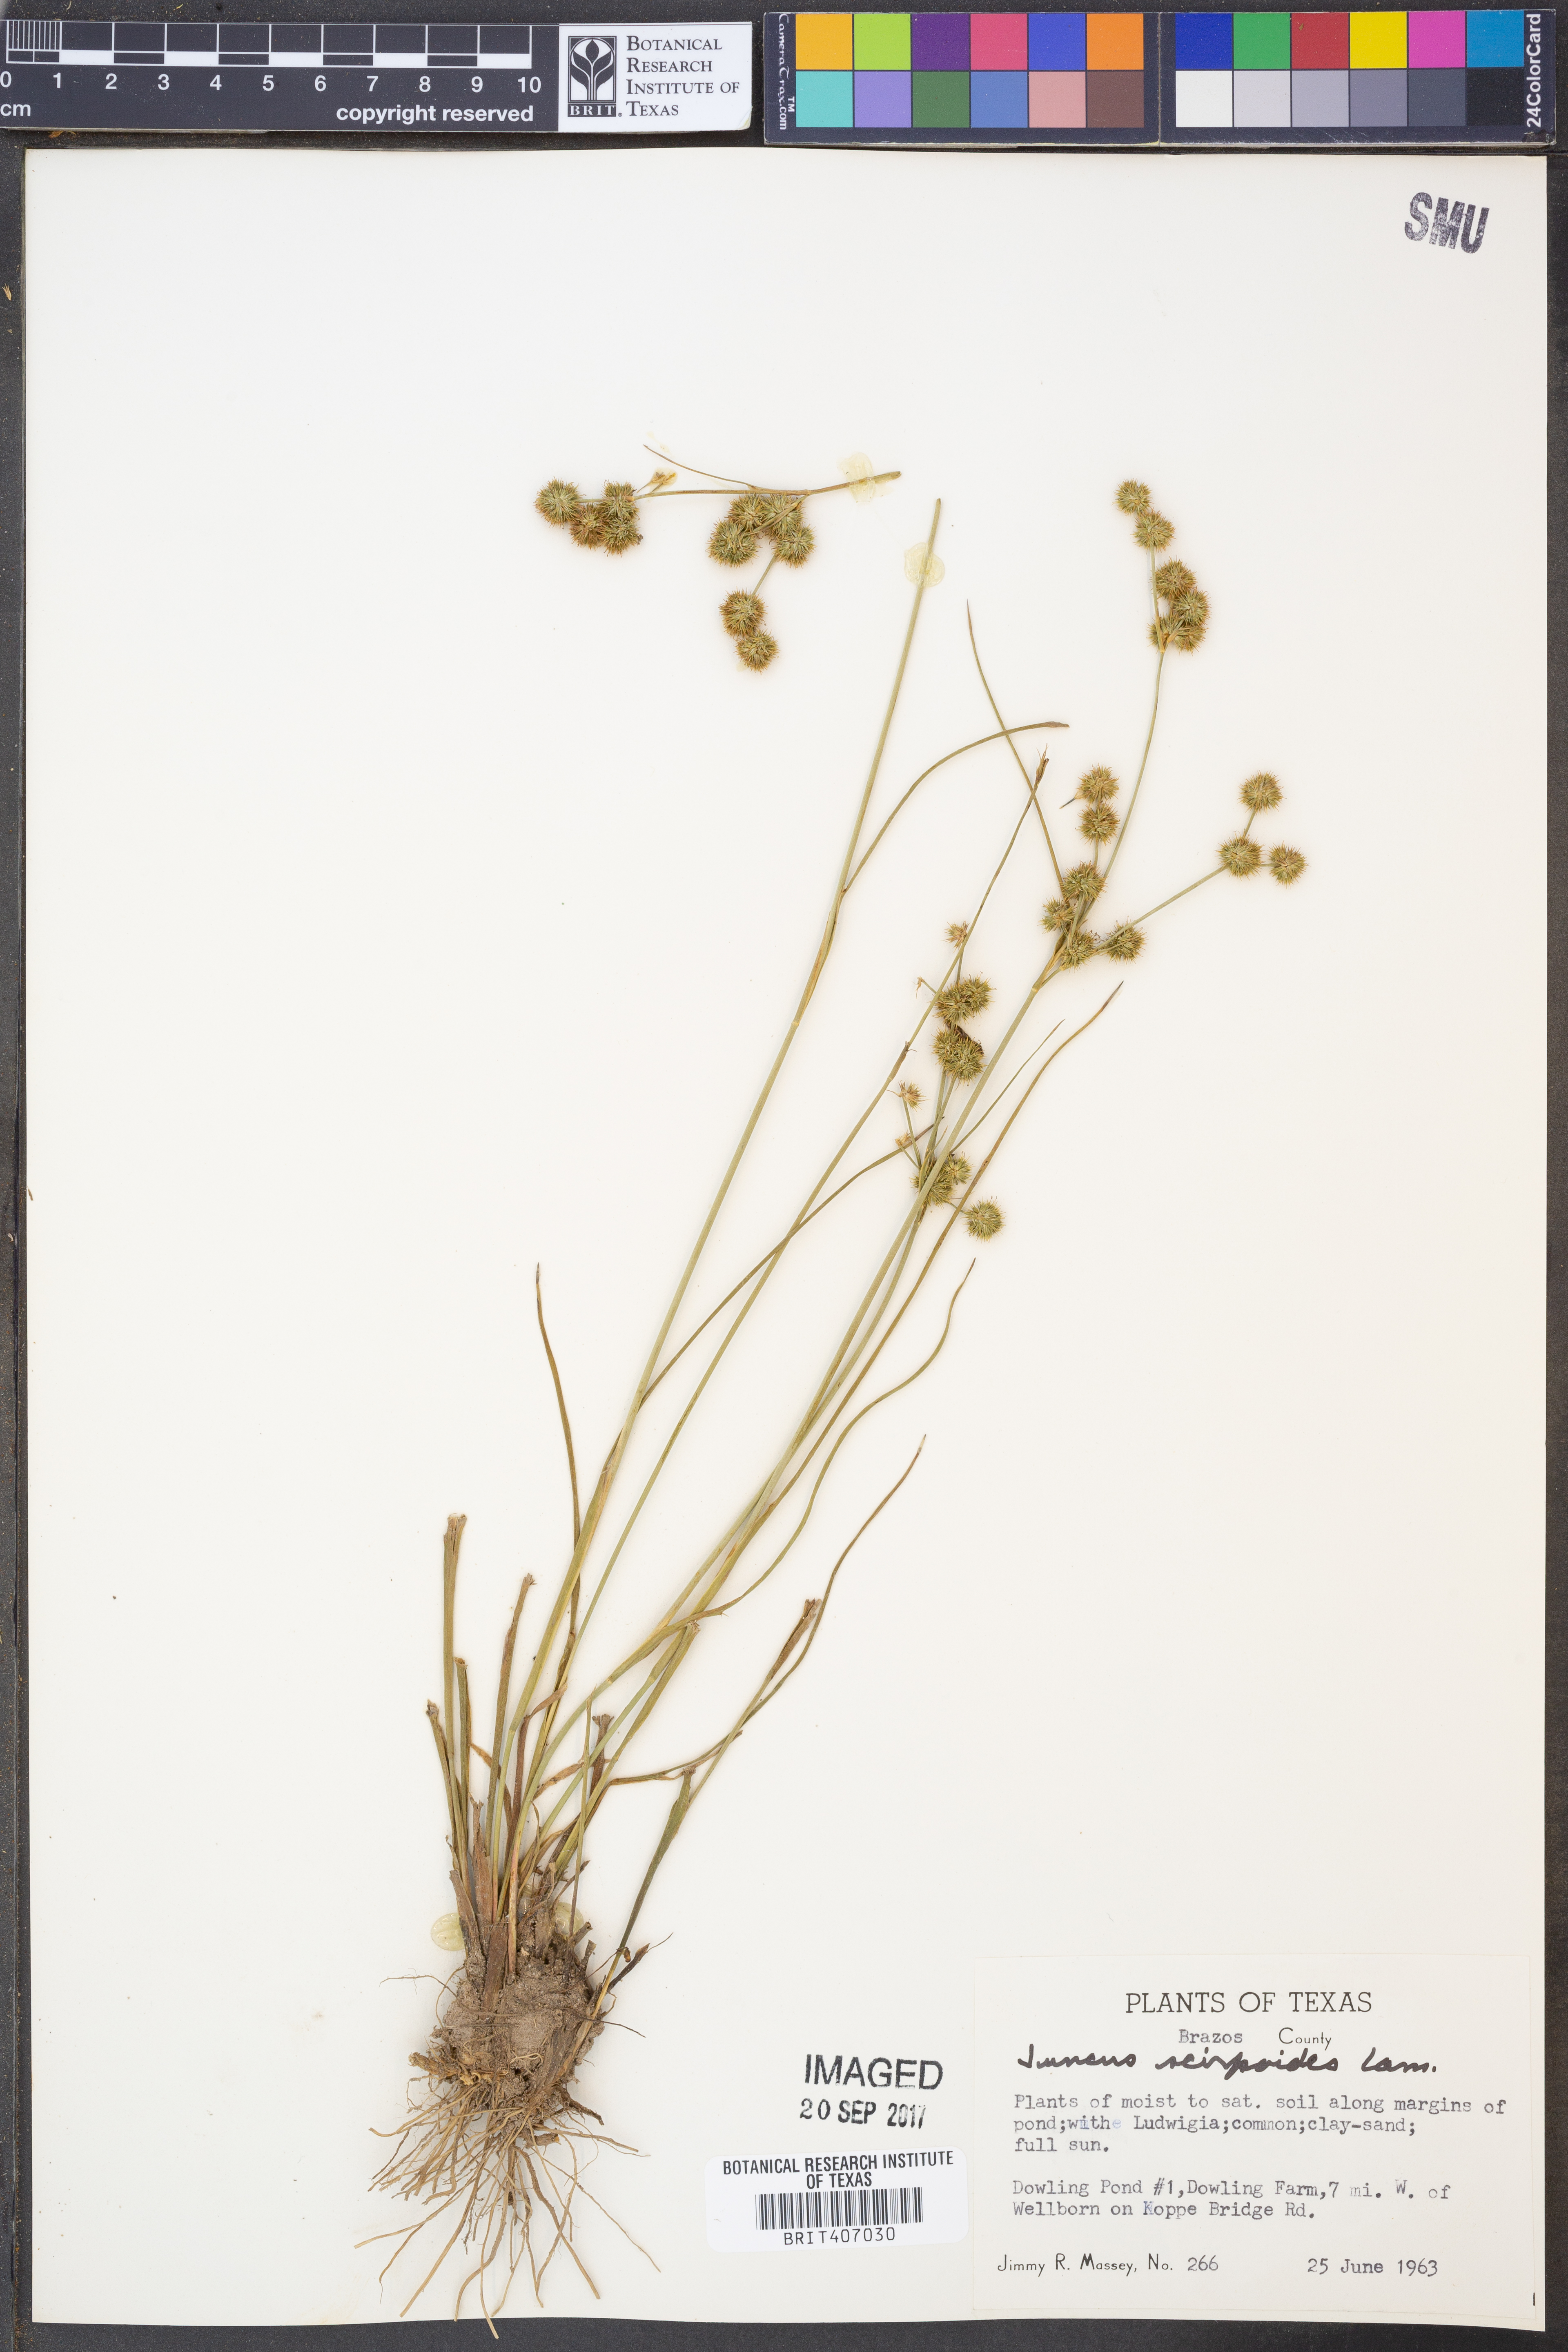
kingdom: Plantae
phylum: Tracheophyta
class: Liliopsida
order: Poales
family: Juncaceae
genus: Juncus
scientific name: Juncus scirpoides
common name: Needlepod rush
